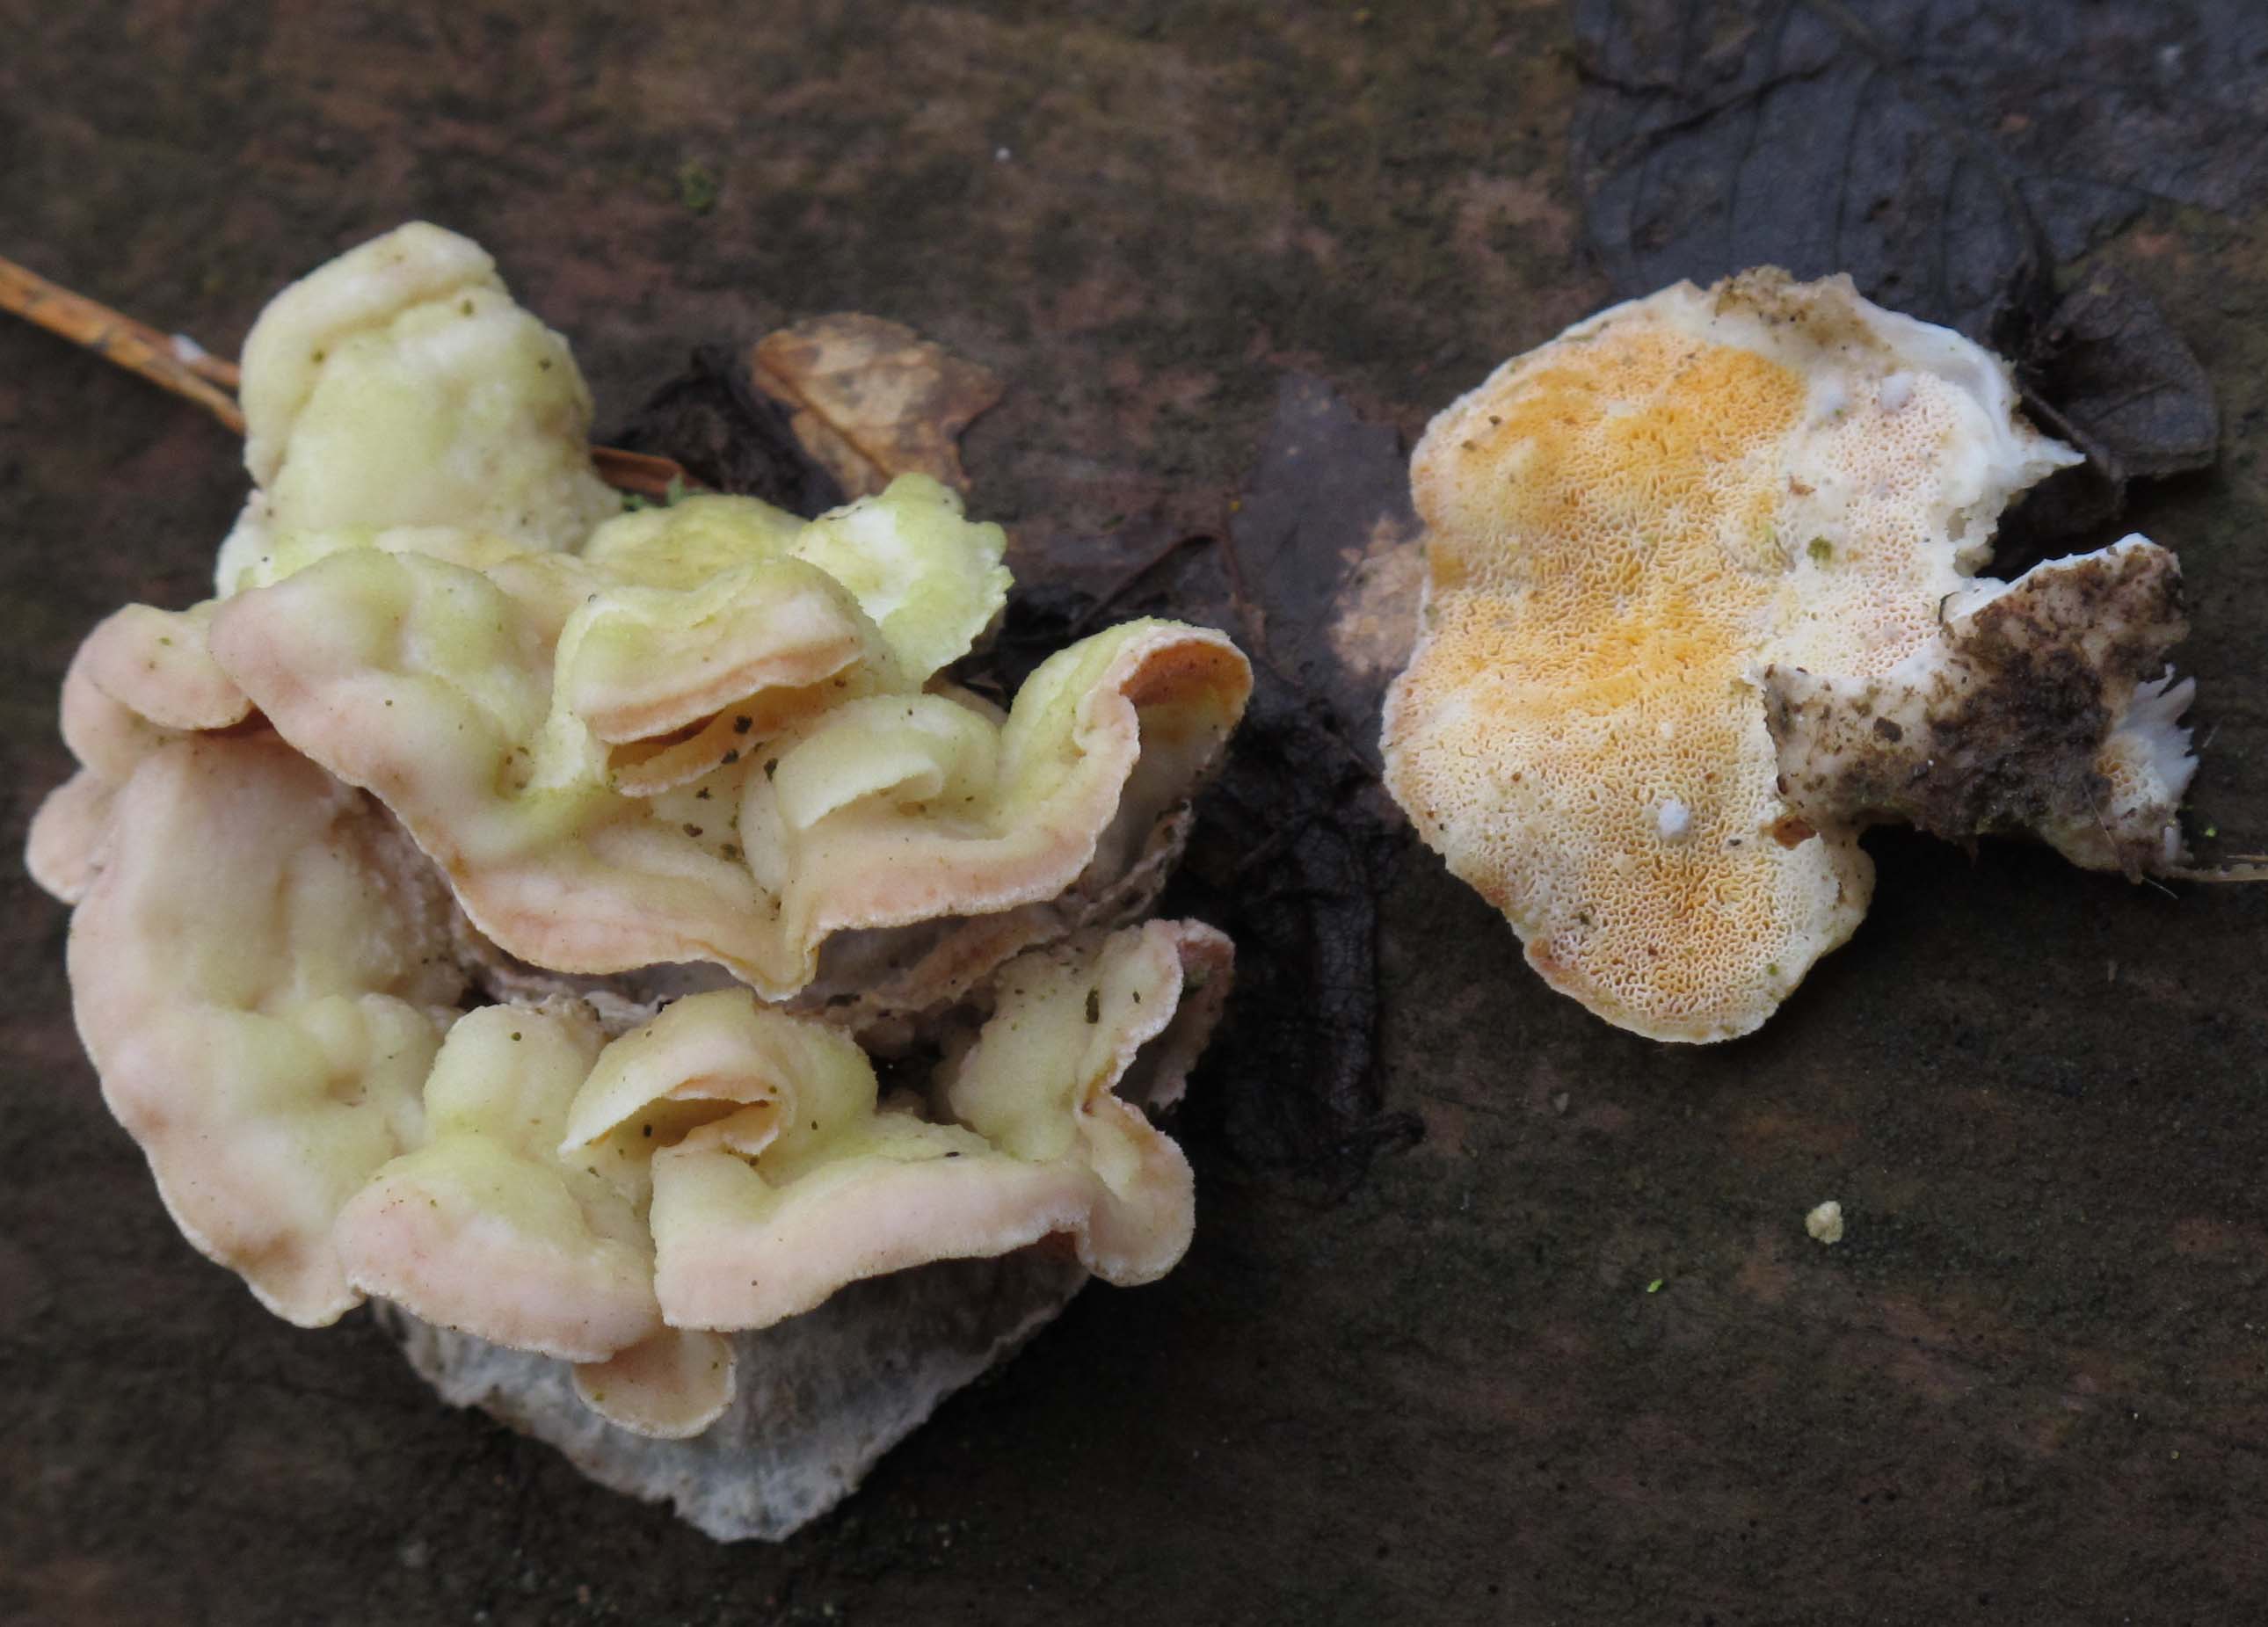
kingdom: Fungi
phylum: Basidiomycota
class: Agaricomycetes
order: Polyporales
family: Incrustoporiaceae
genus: Skeletocutis
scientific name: Skeletocutis amorpha
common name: orange krystalporesvamp
